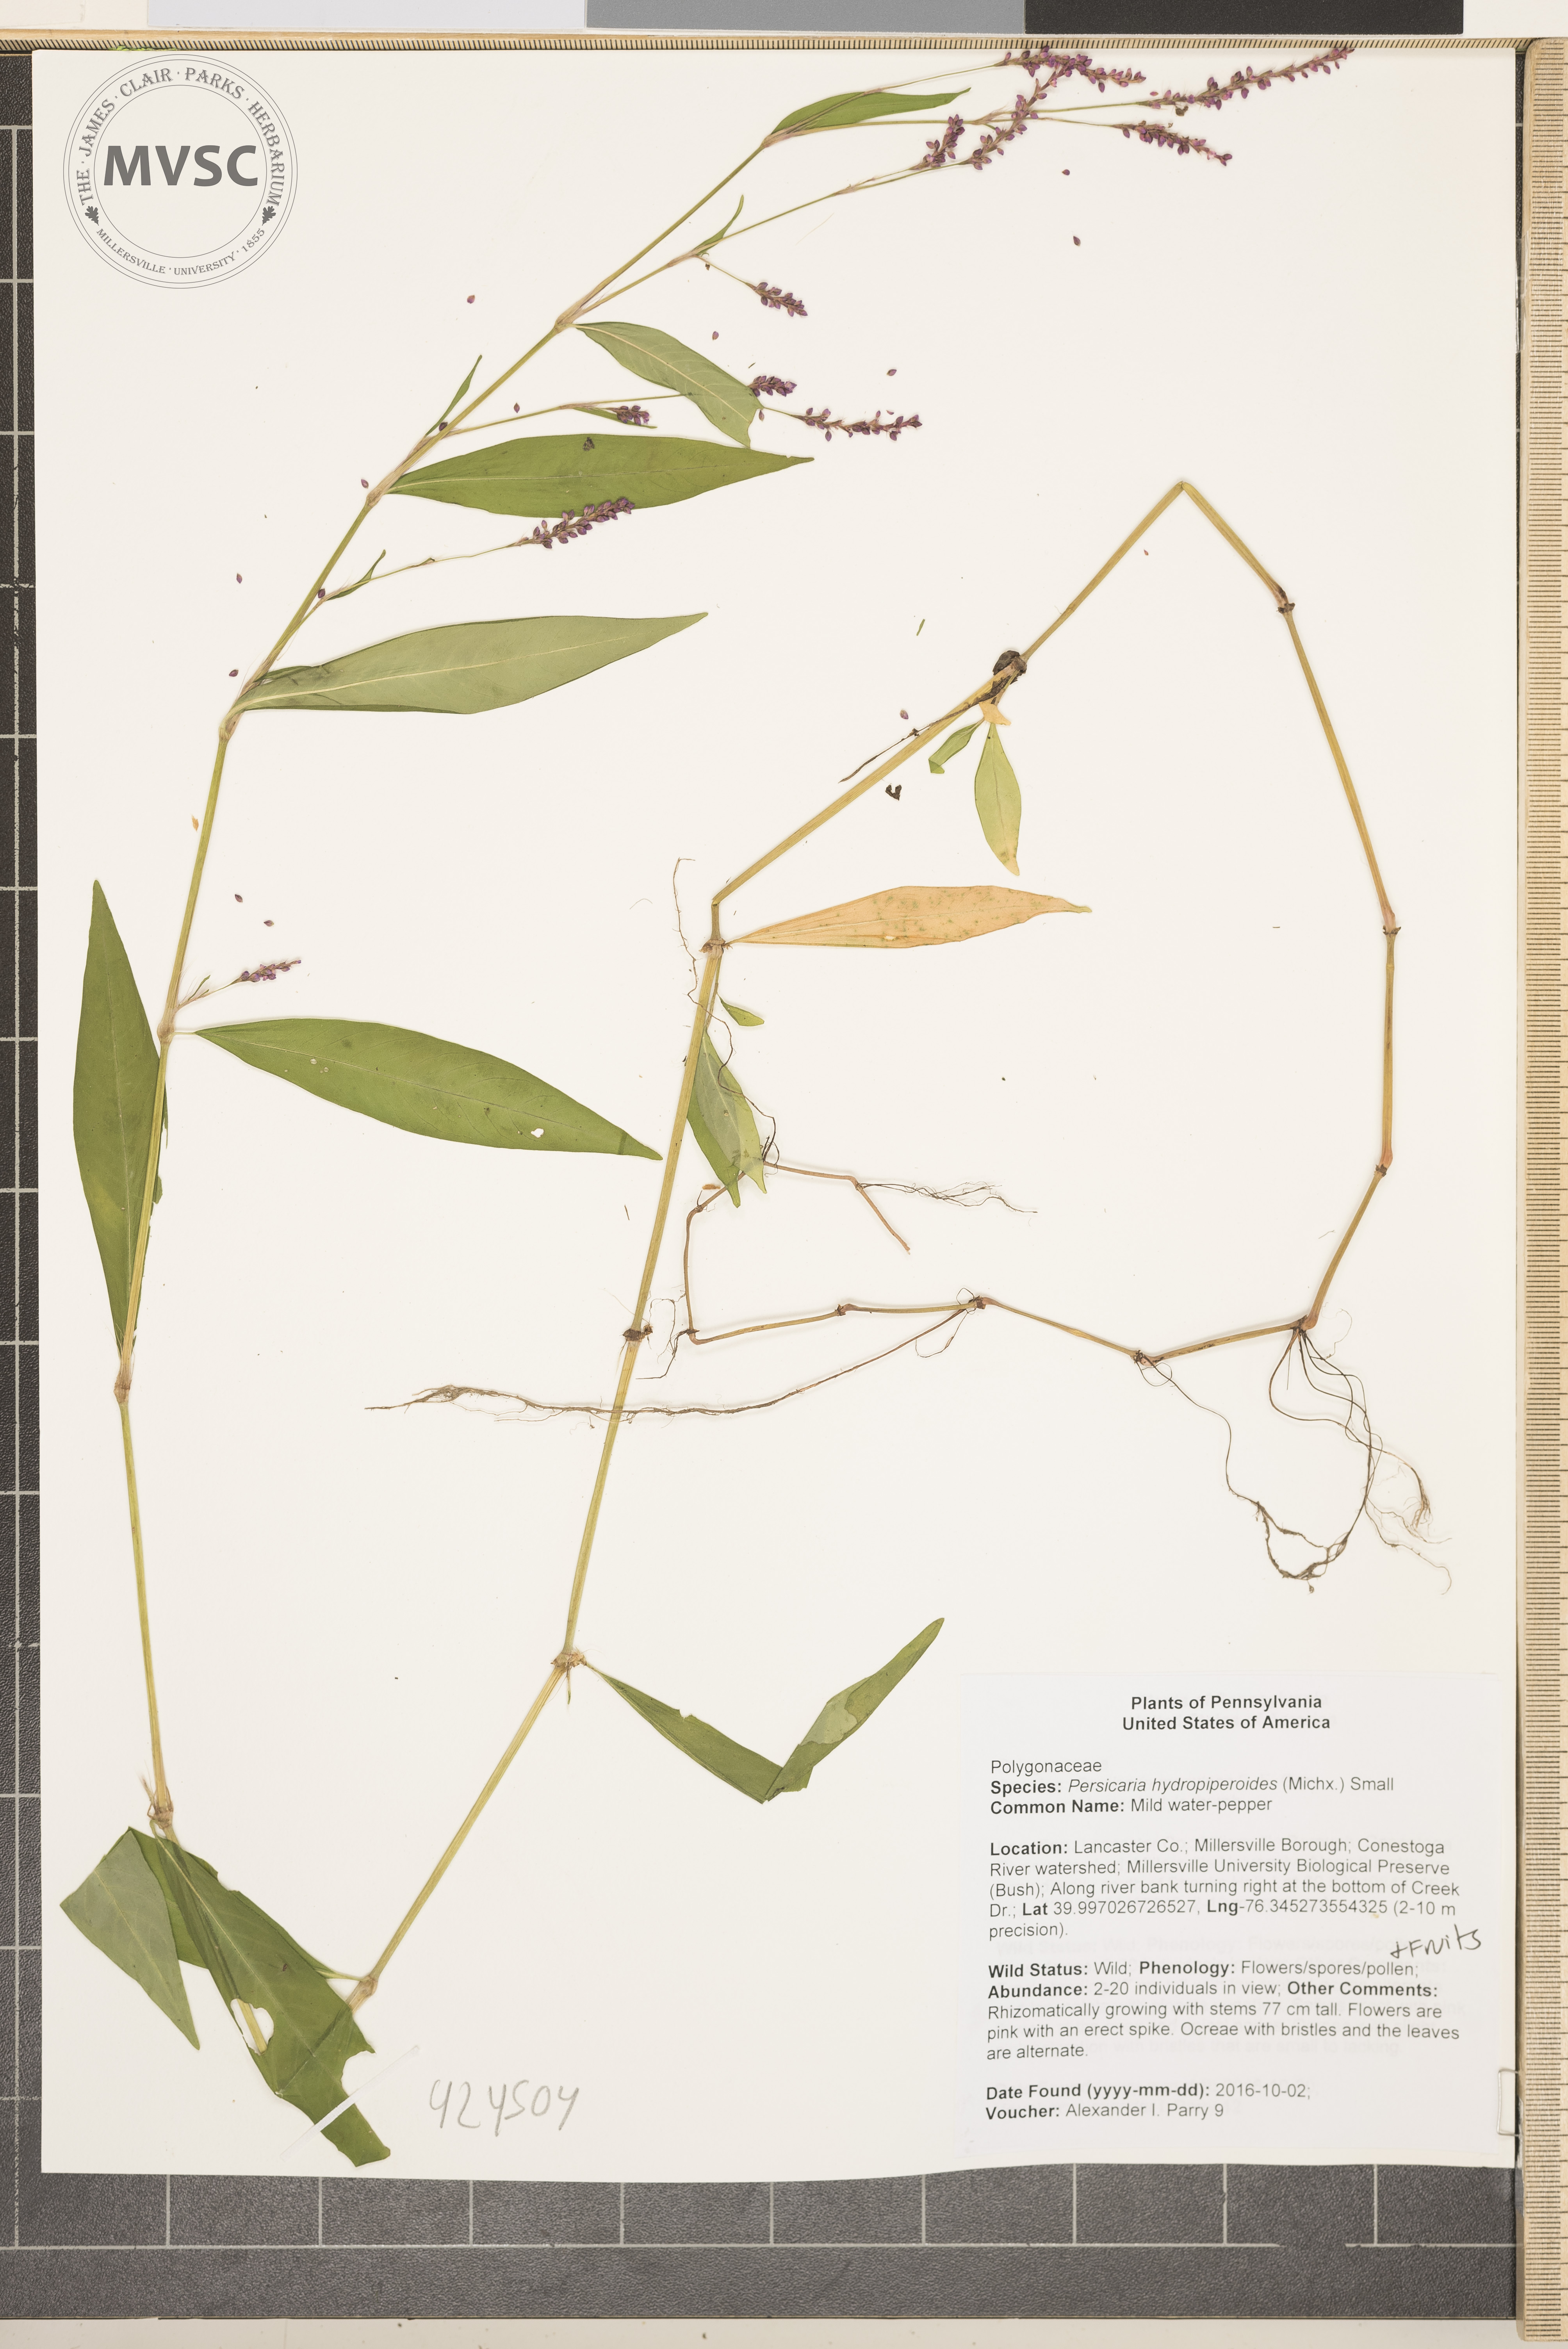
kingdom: Plantae
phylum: Tracheophyta
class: Magnoliopsida
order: Caryophyllales
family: Polygonaceae
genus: Persicaria
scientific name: Persicaria hydropiperoides
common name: Mild water-pepper
